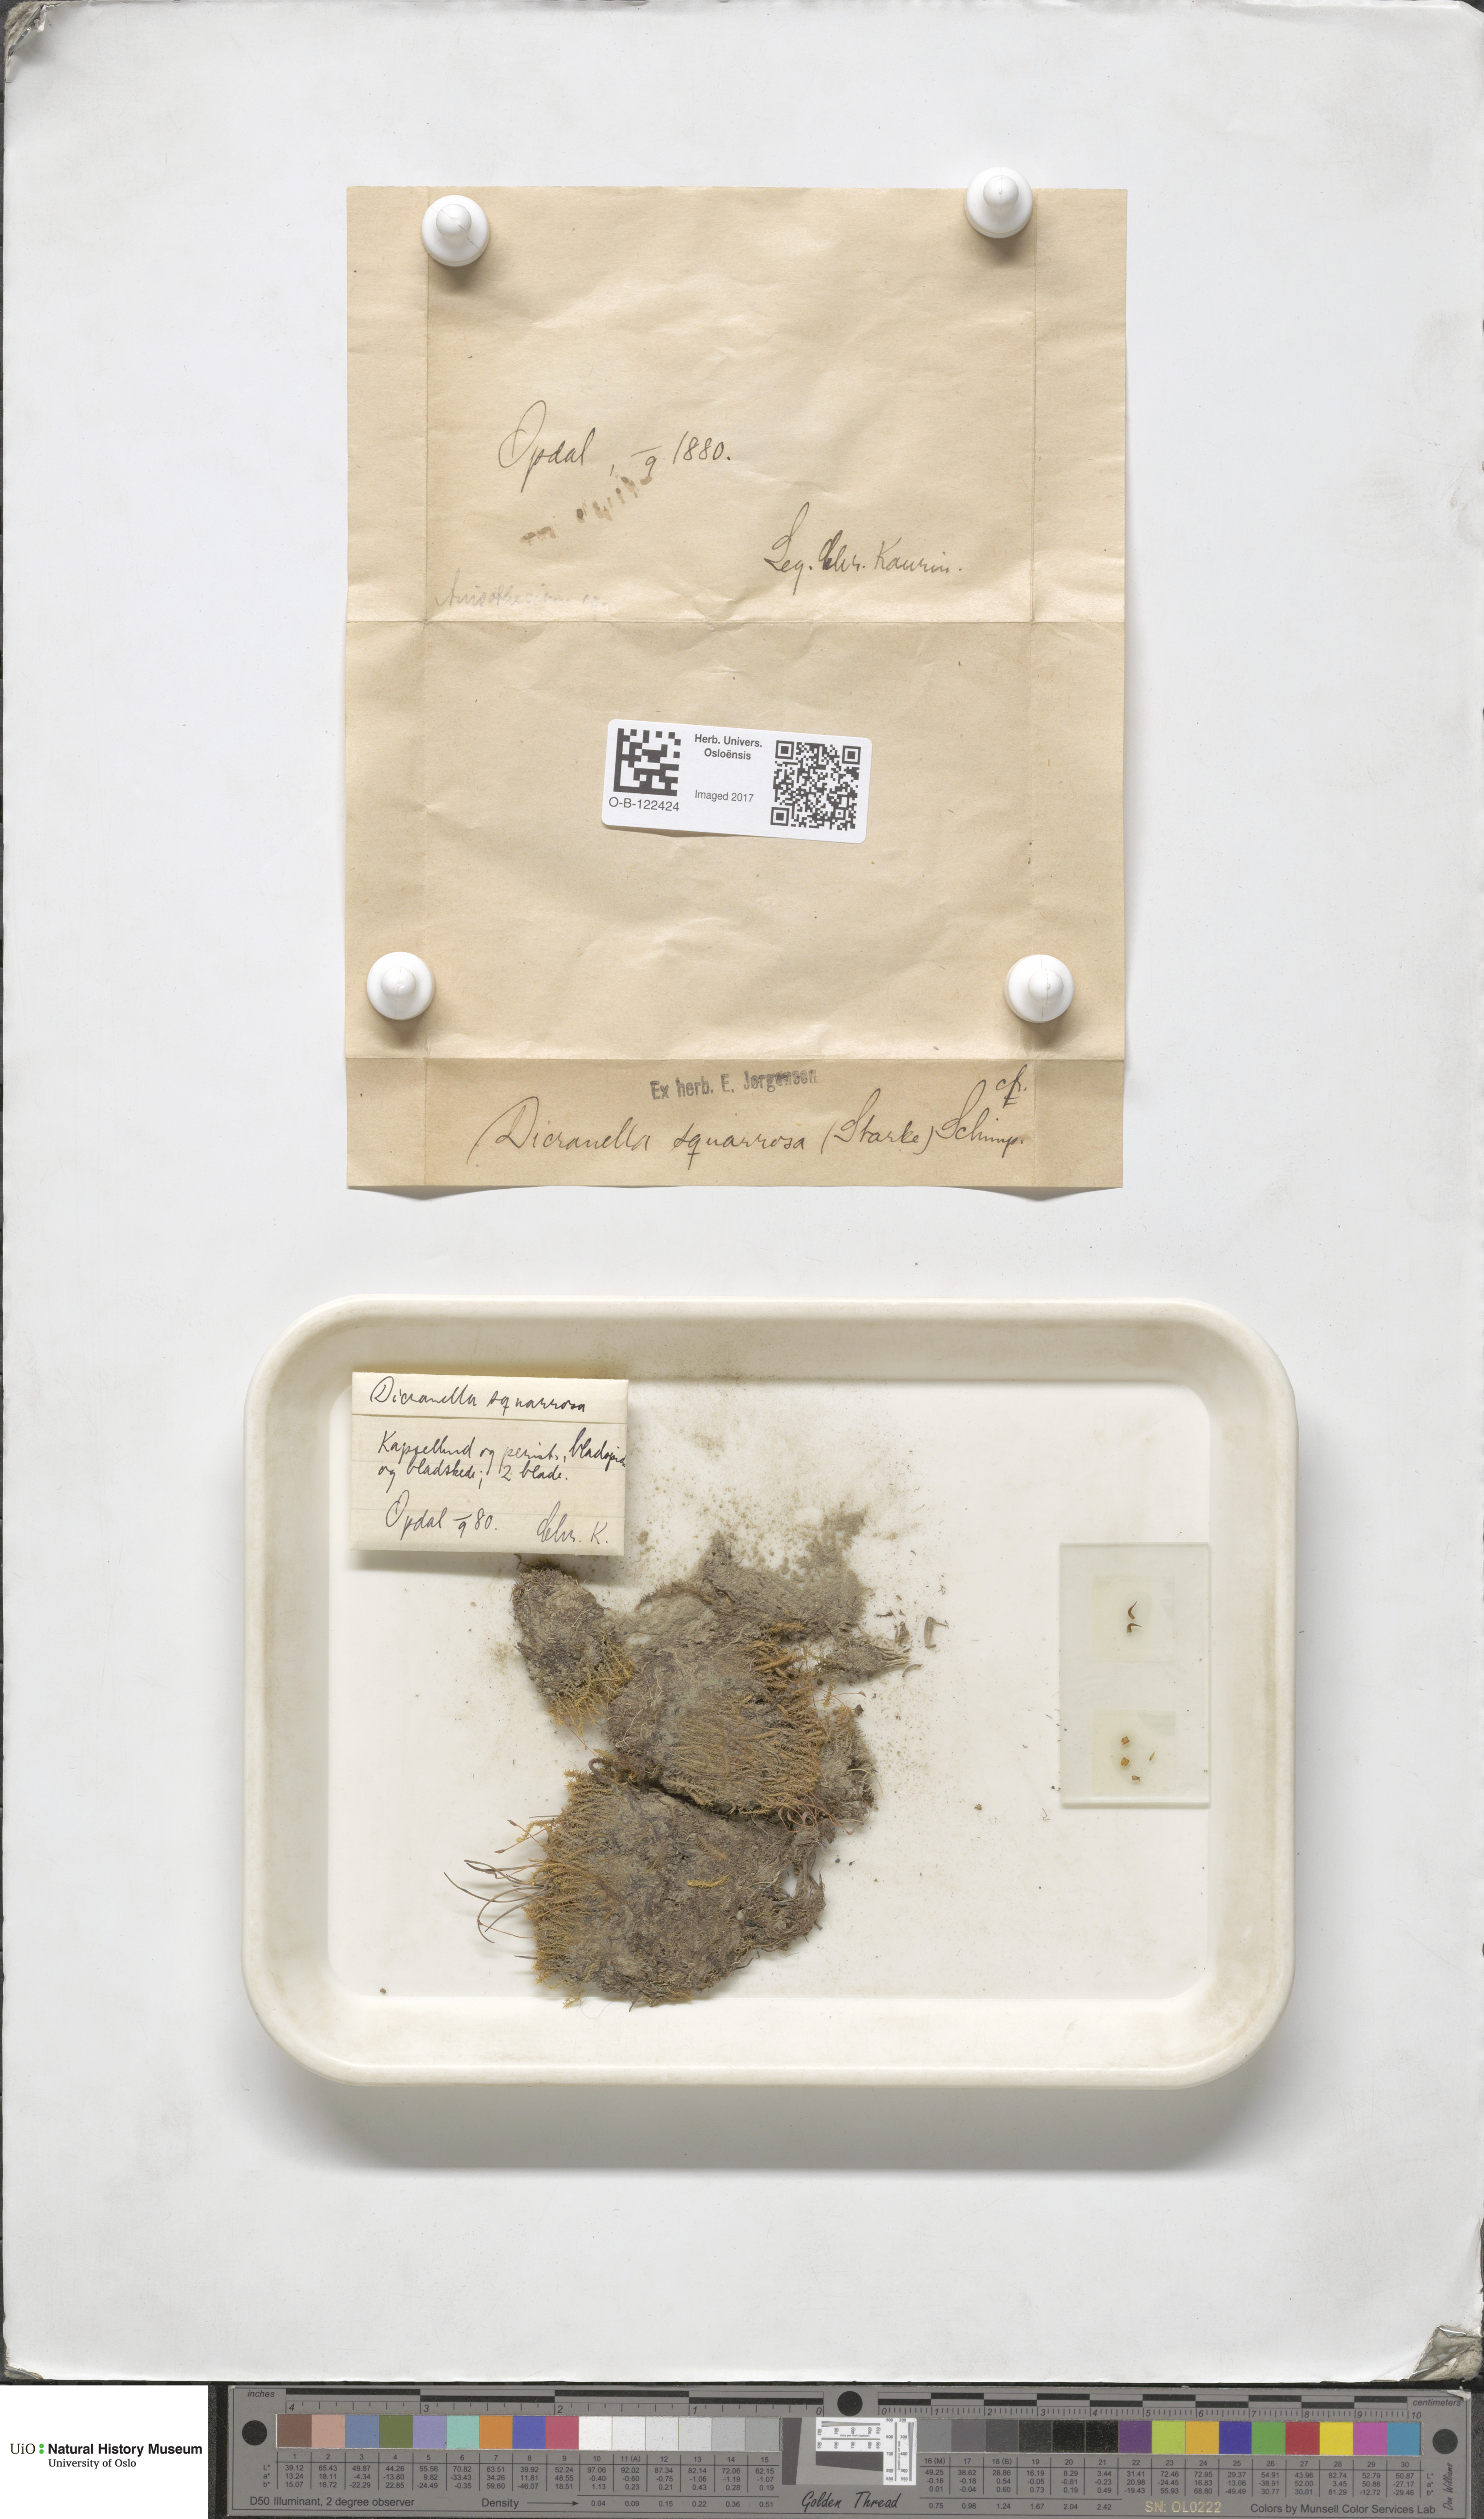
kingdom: Plantae
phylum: Bryophyta
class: Bryopsida
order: Dicranales
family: Aongstroemiaceae
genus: Diobelonella
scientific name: Diobelonella palustris
